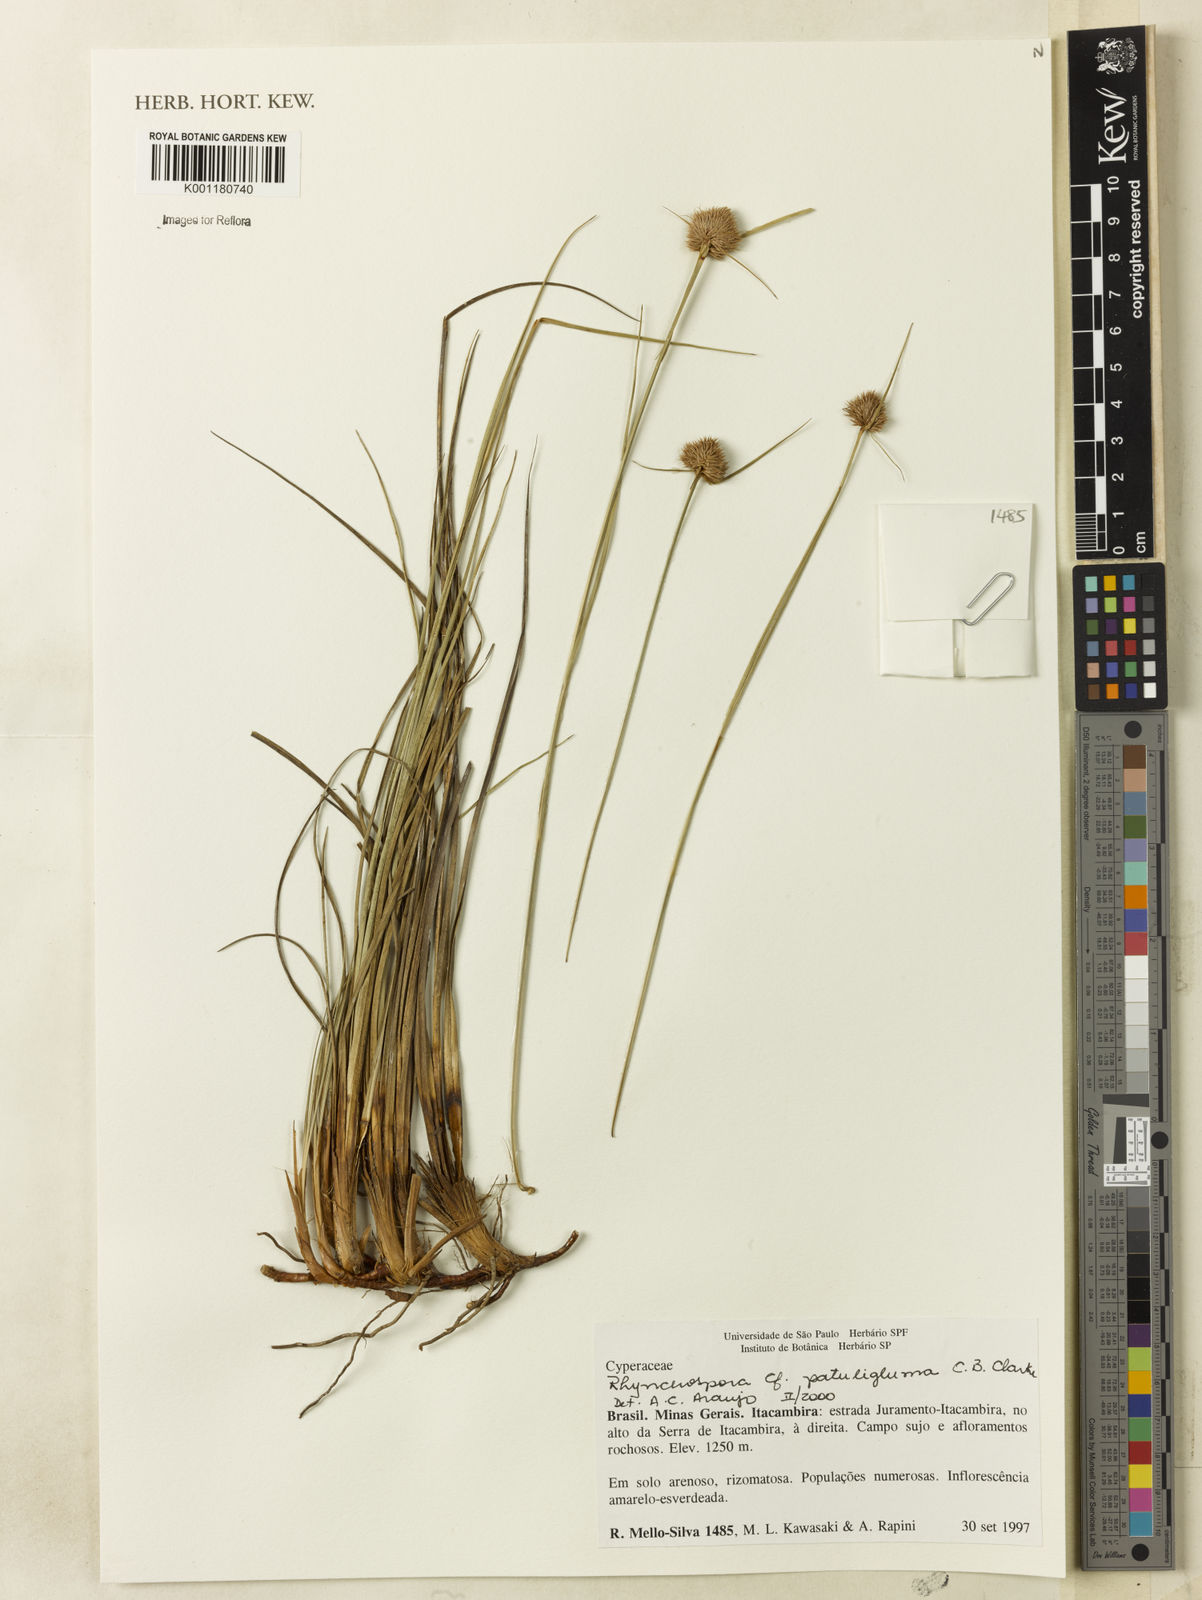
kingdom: Plantae
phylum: Tracheophyta
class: Liliopsida
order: Poales
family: Cyperaceae
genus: Rhynchospora
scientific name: Rhynchospora patuligluma
